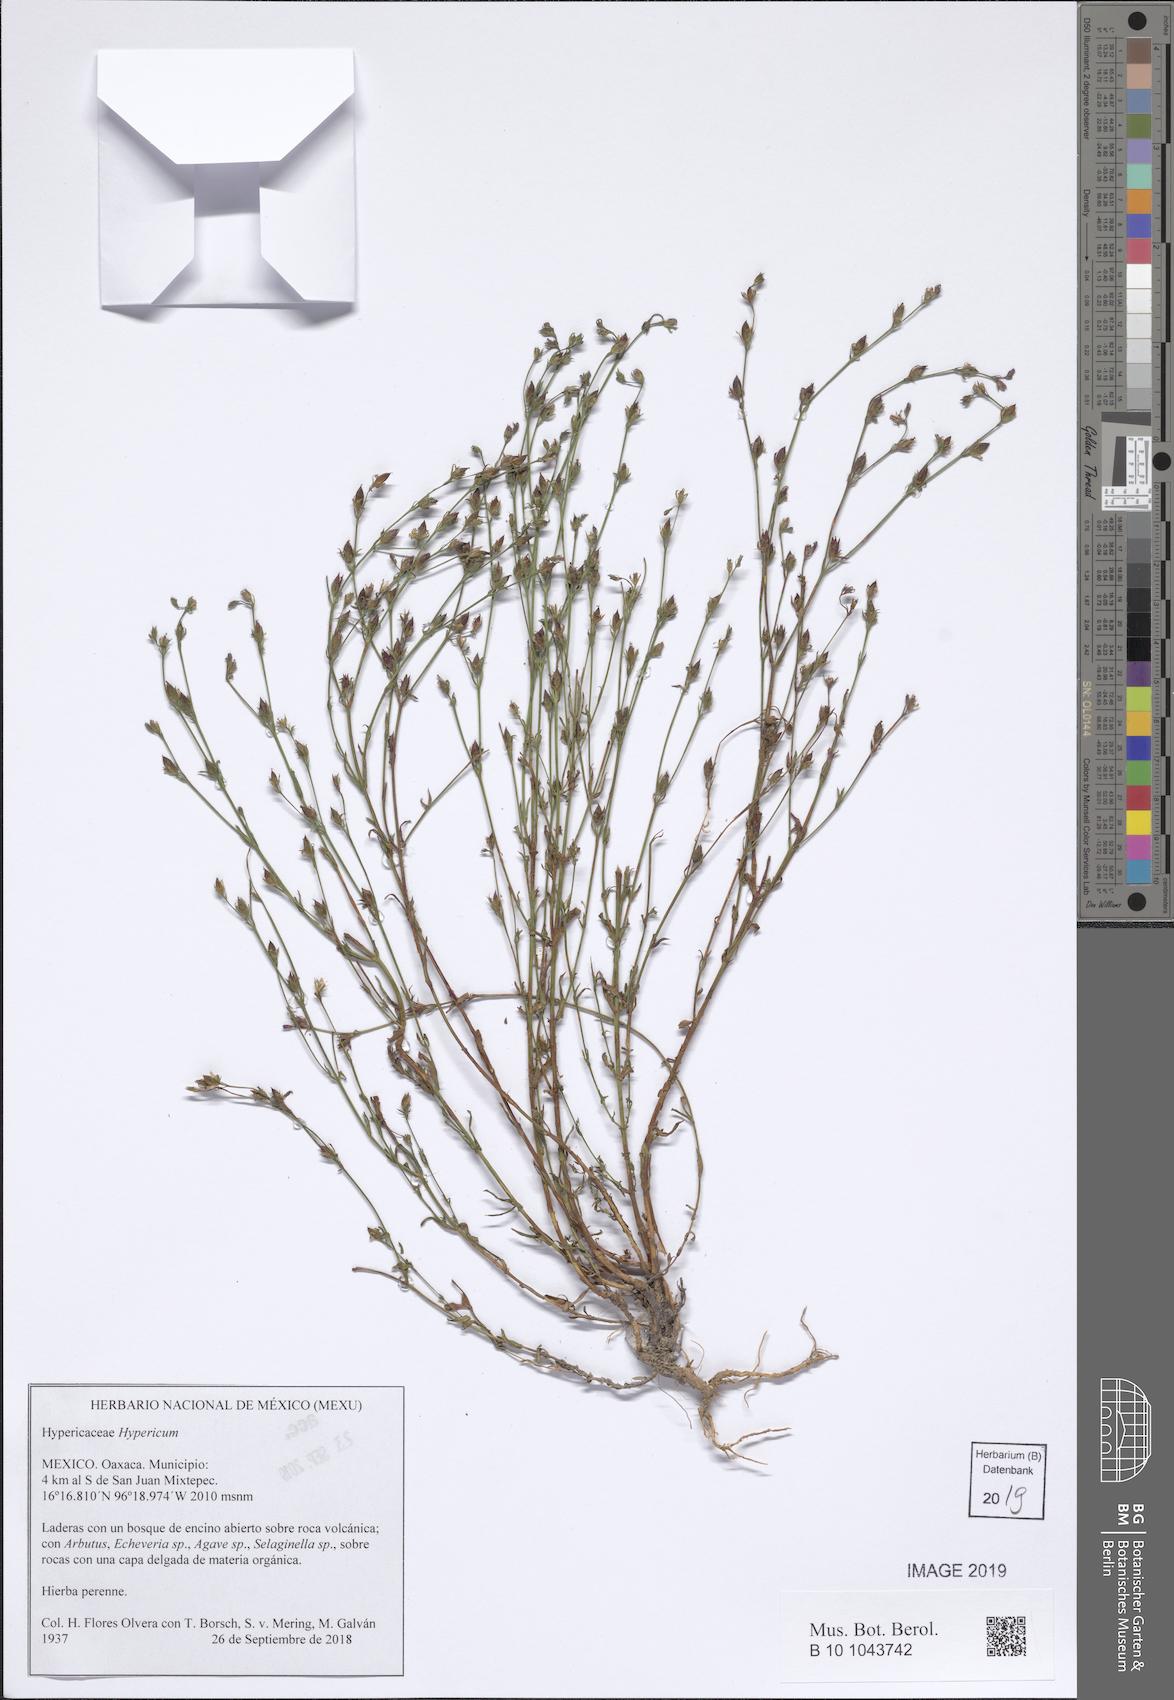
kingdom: Plantae
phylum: Tracheophyta
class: Magnoliopsida
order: Malpighiales
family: Hypericaceae
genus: Hypericum
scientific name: Hypericum
